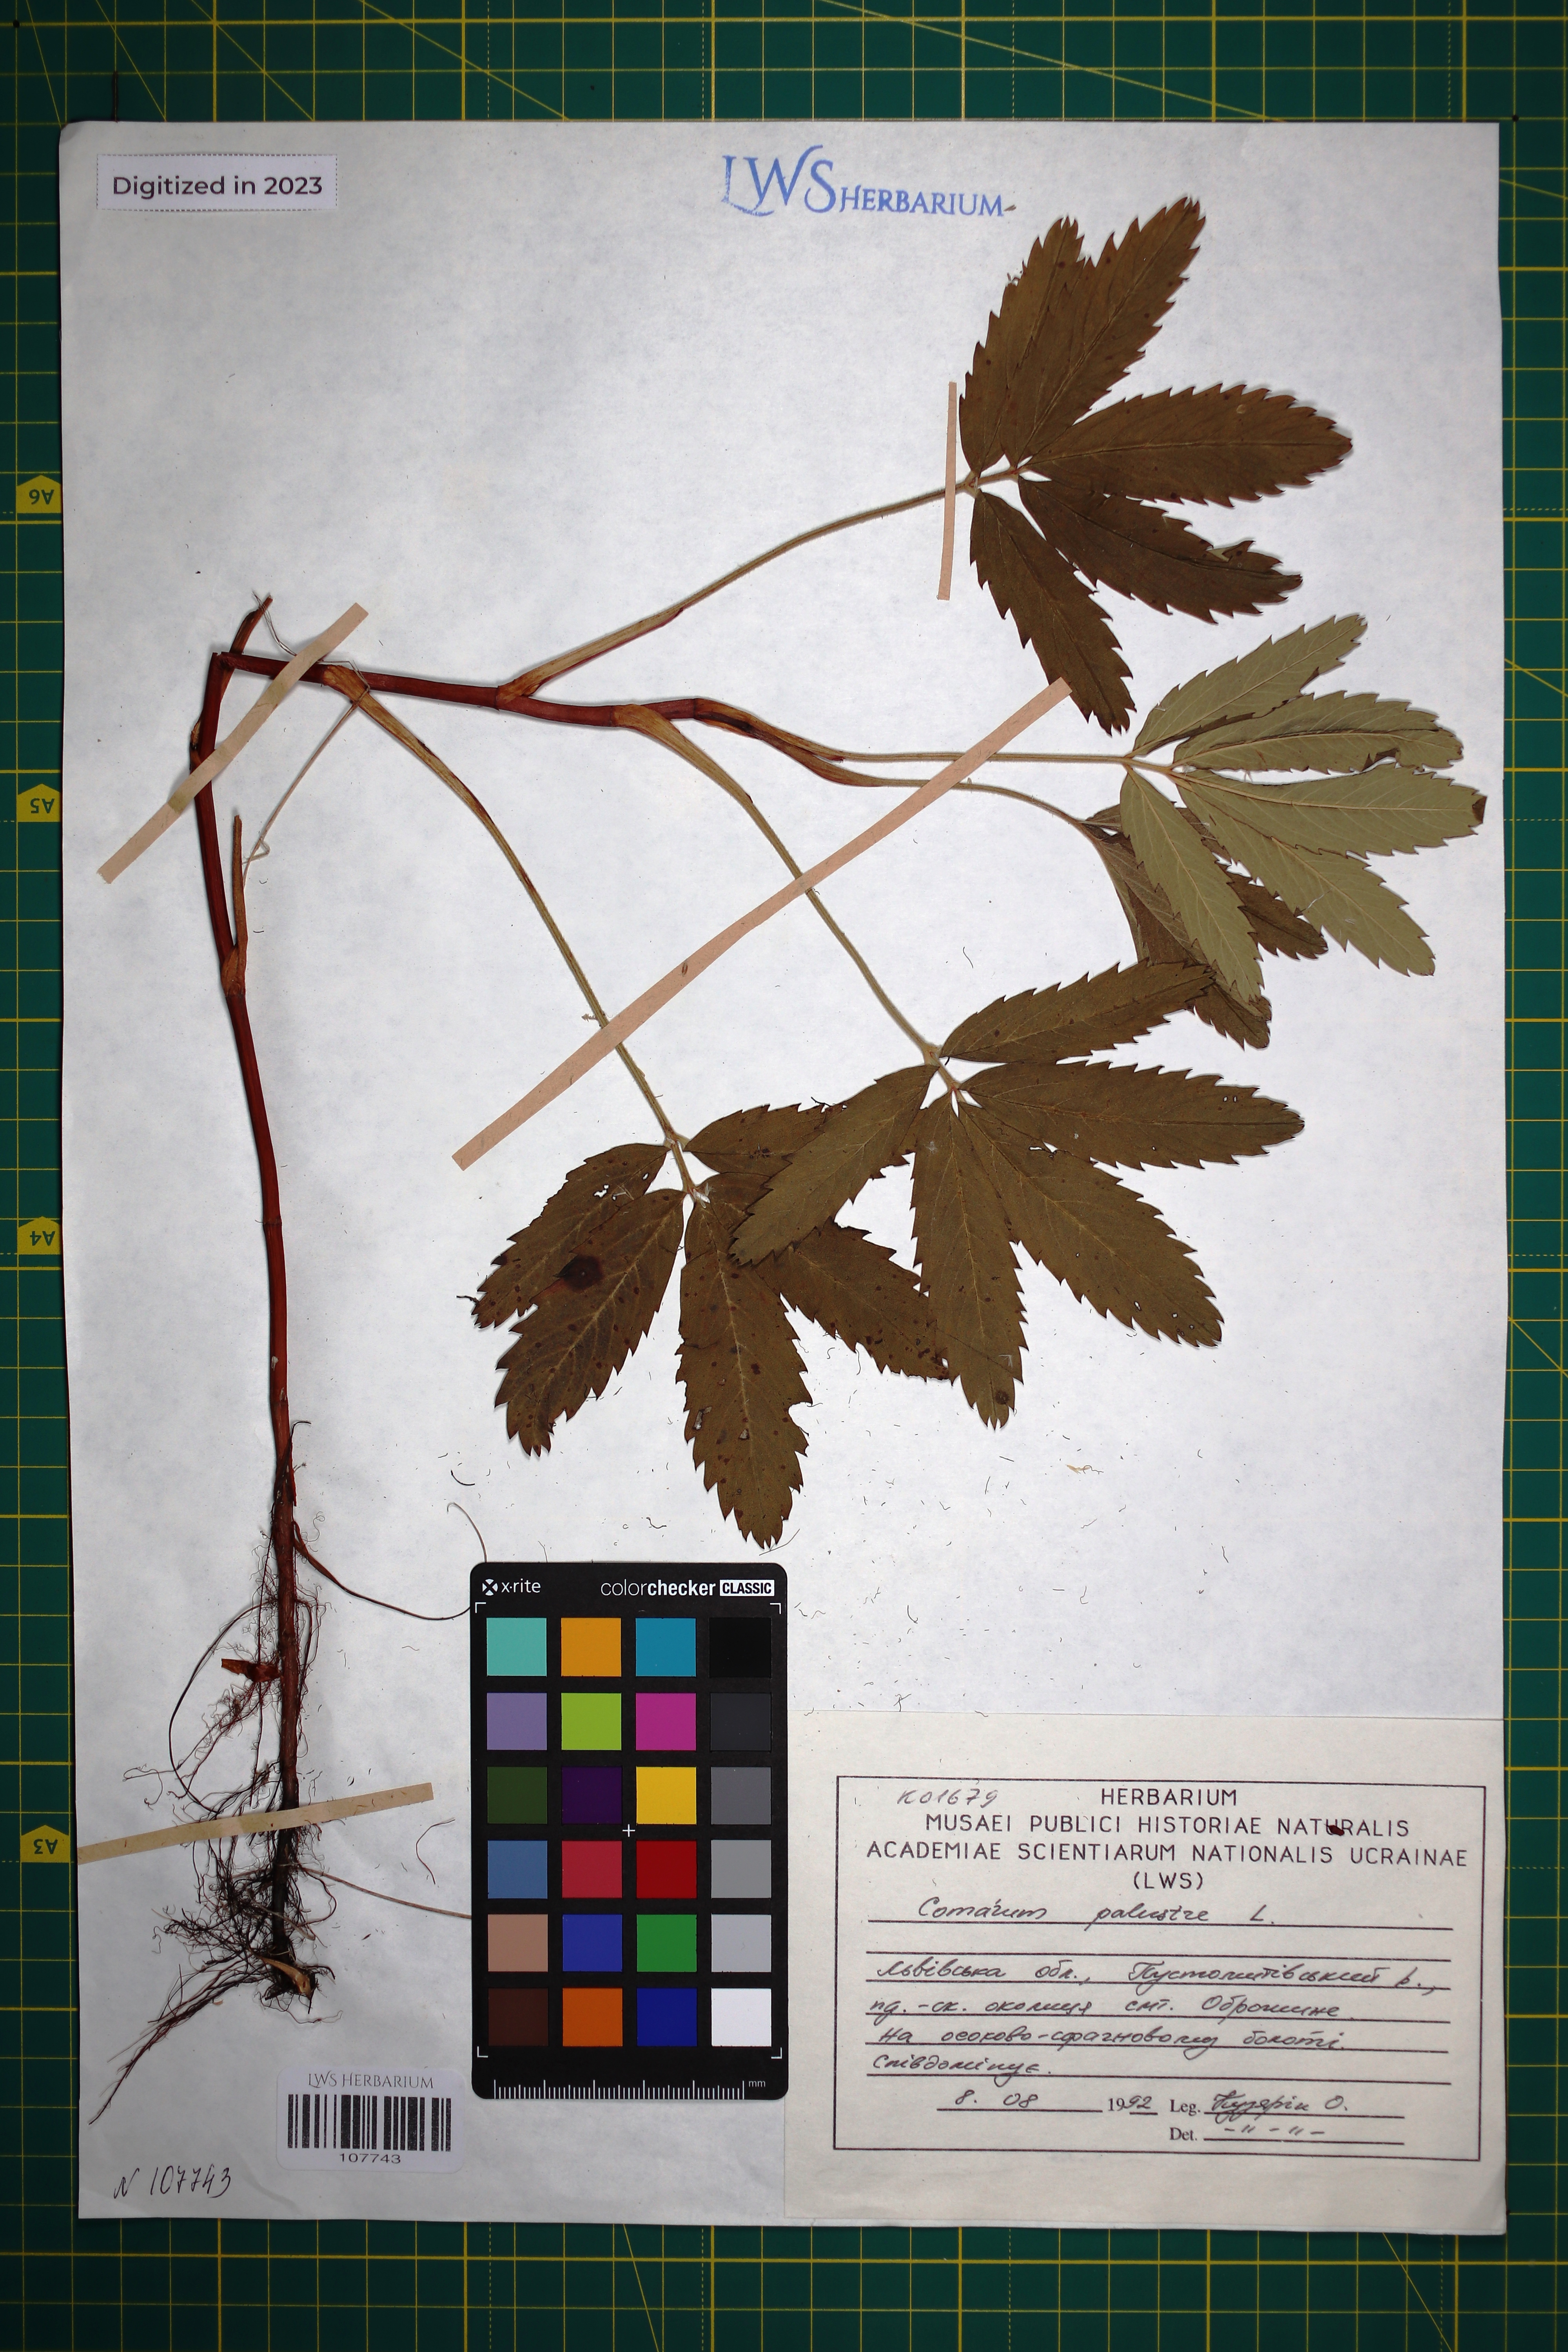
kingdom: Plantae
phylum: Tracheophyta
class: Magnoliopsida
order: Rosales
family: Rosaceae
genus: Comarum
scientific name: Comarum palustre
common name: Marsh cinquefoil
